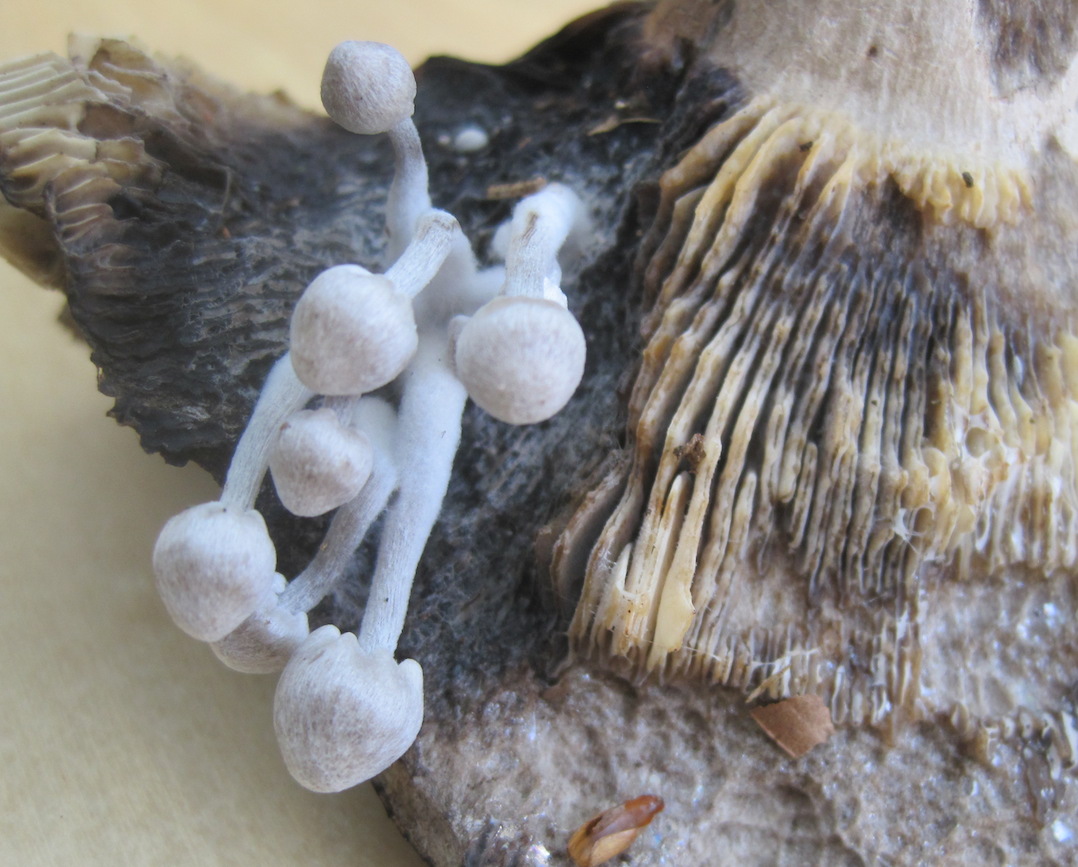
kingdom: Fungi
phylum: Basidiomycota
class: Agaricomycetes
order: Agaricales
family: Lyophyllaceae
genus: Asterophora
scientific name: Asterophora parasitica
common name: grå snyltehat
